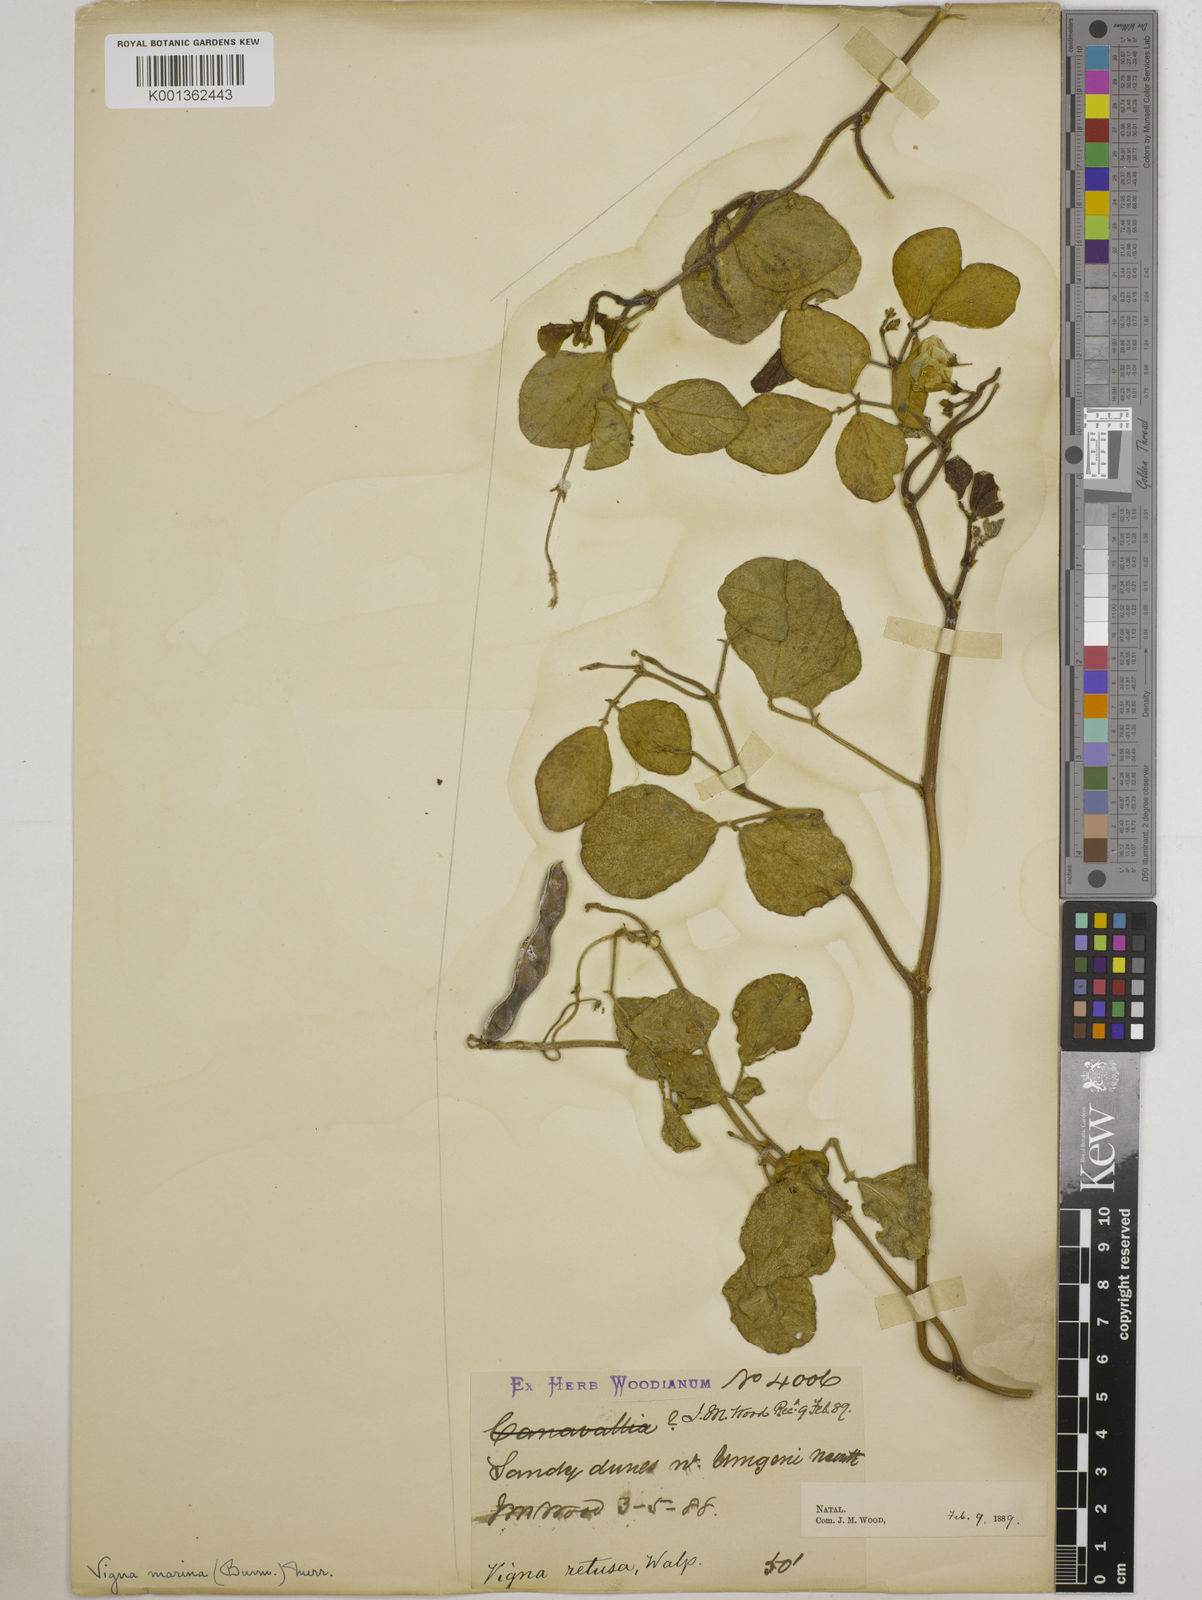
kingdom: Plantae
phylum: Tracheophyta
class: Magnoliopsida
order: Fabales
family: Fabaceae
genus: Vigna
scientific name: Vigna marina
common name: Dune-bean
